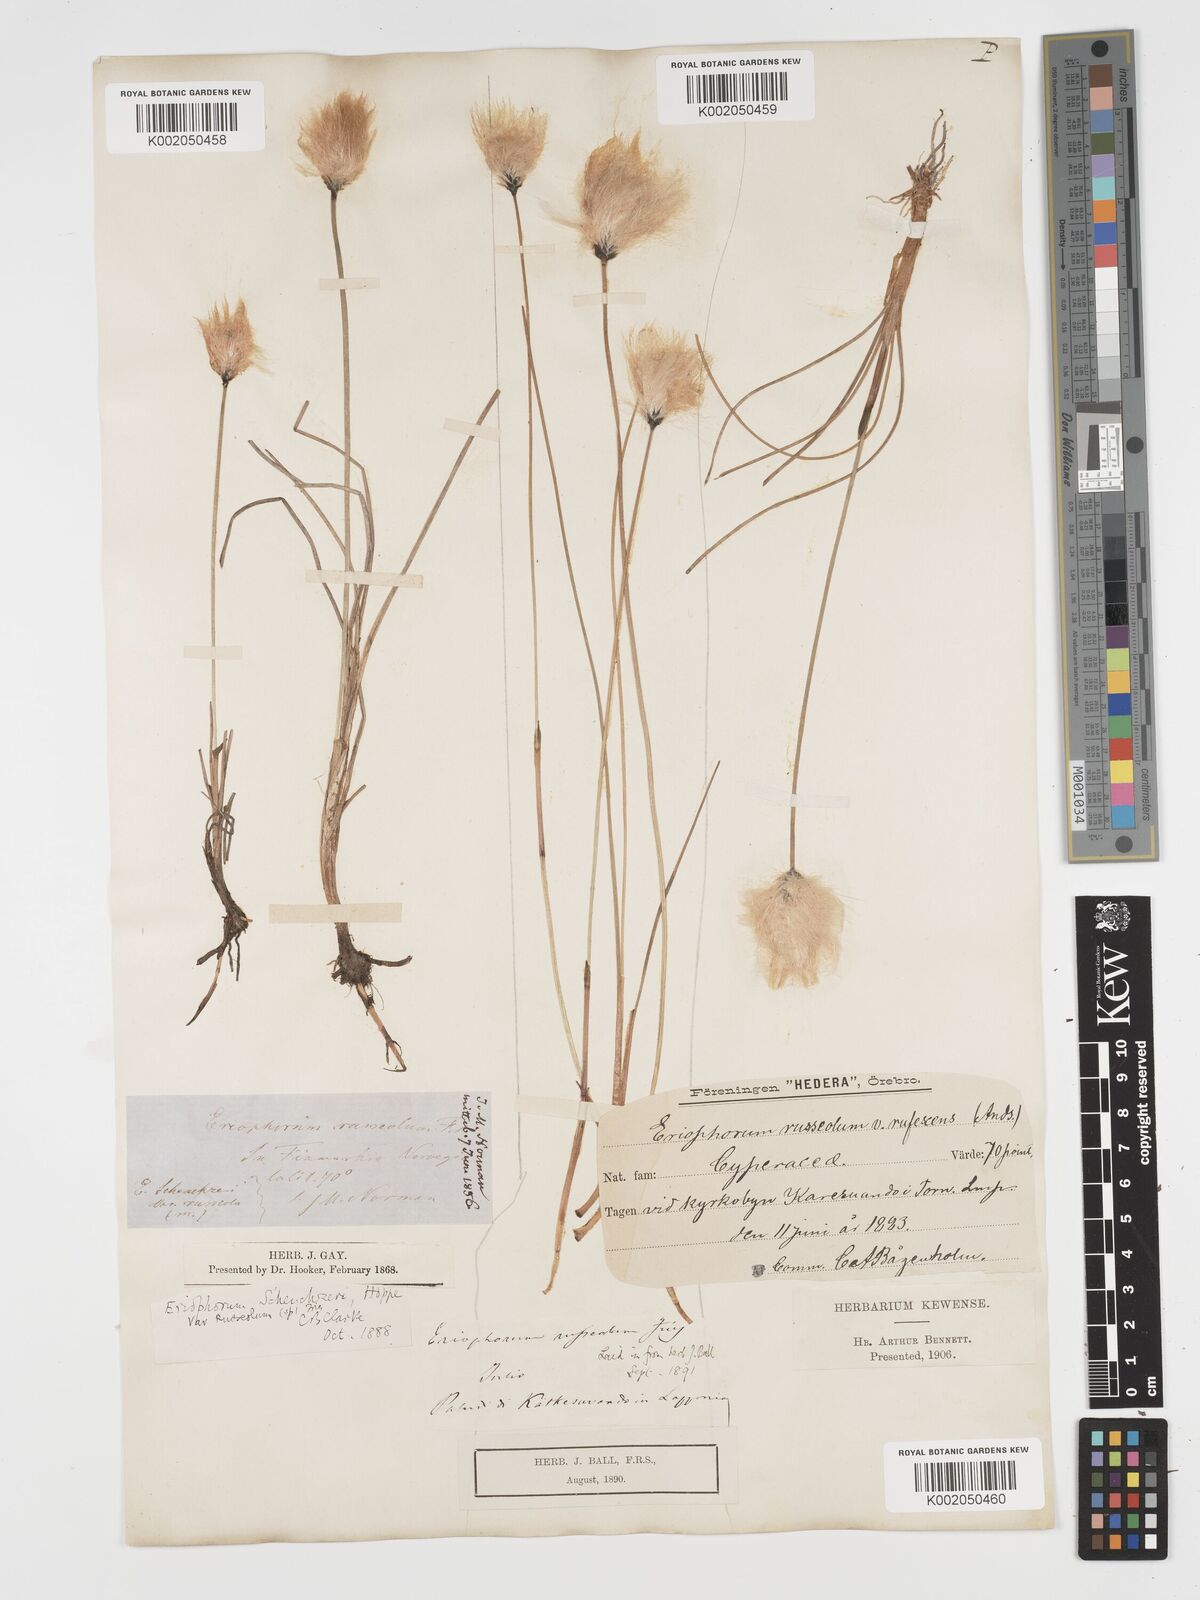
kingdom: Plantae
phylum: Tracheophyta
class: Liliopsida
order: Poales
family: Cyperaceae
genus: Eriophorum
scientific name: Eriophorum scheuchzeri
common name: Scheuchzer's cottongrass
